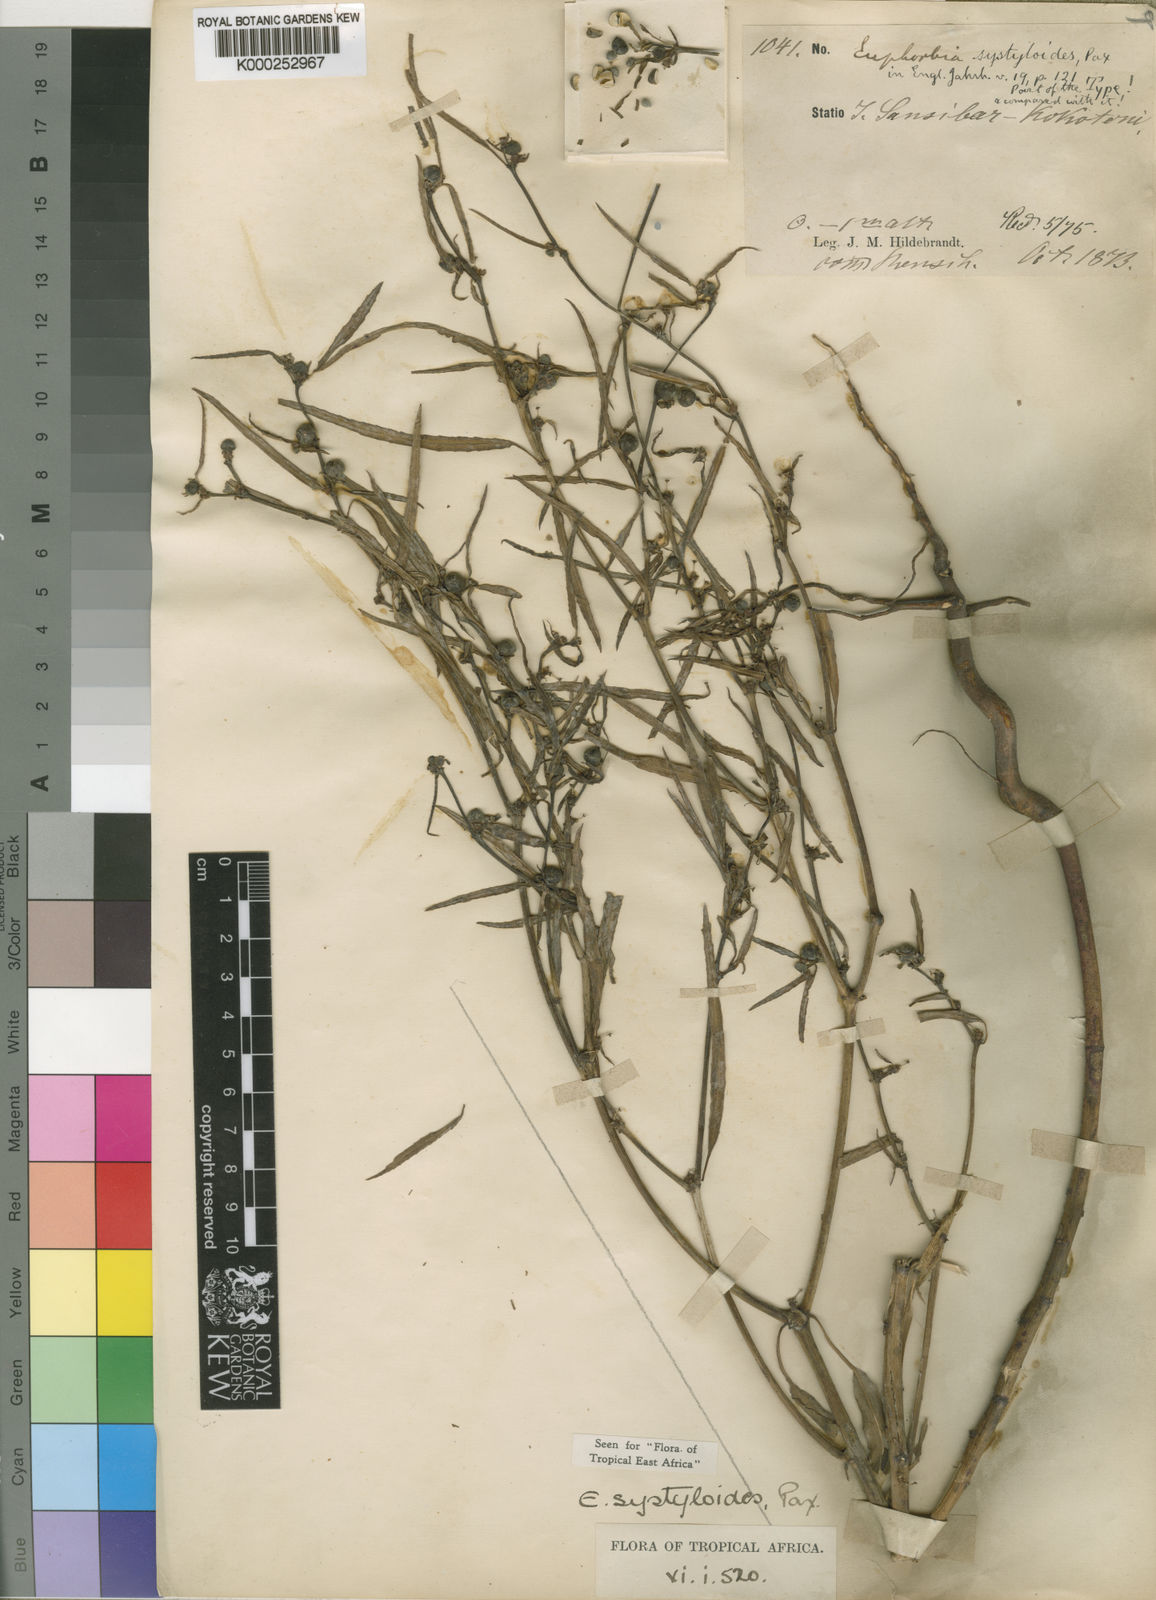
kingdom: Plantae
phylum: Tracheophyta
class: Magnoliopsida
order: Malpighiales
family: Euphorbiaceae
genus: Euphorbia
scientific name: Euphorbia systyloides
